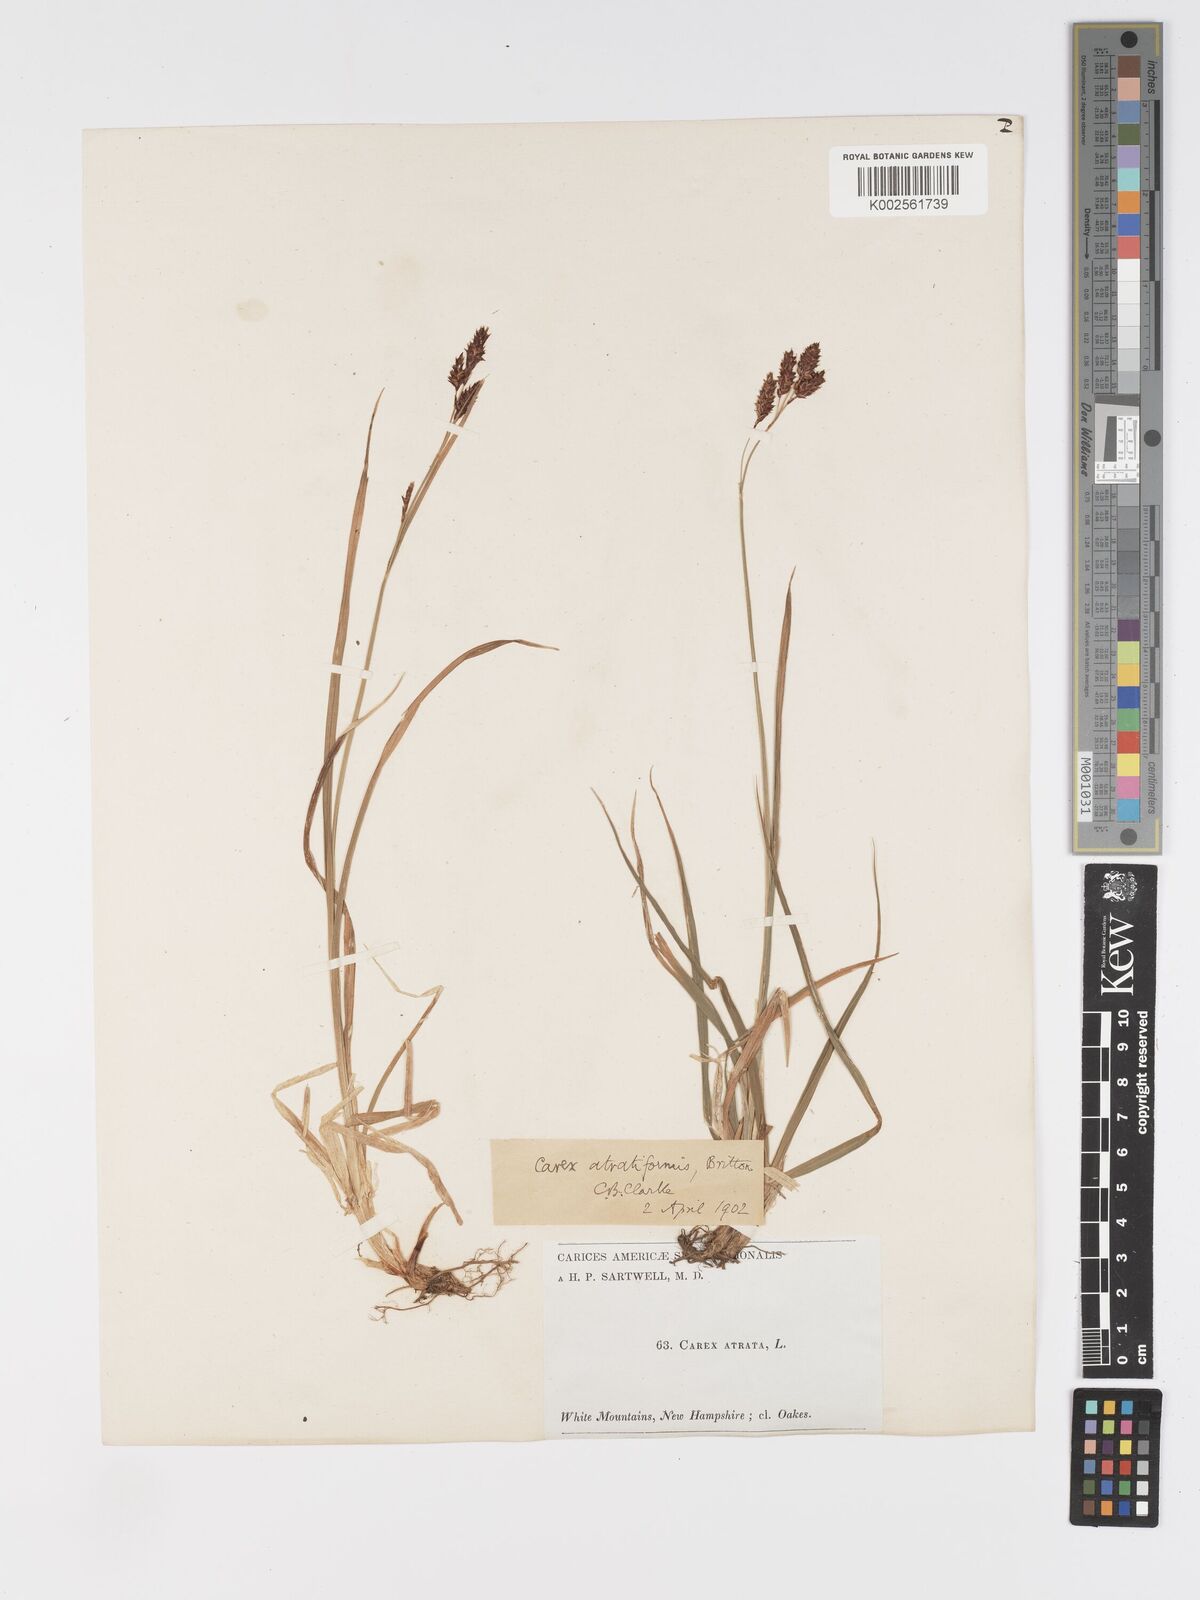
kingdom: Plantae
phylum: Tracheophyta
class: Liliopsida
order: Poales
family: Cyperaceae
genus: Carex
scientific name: Carex atratiformis
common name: Black sedge
